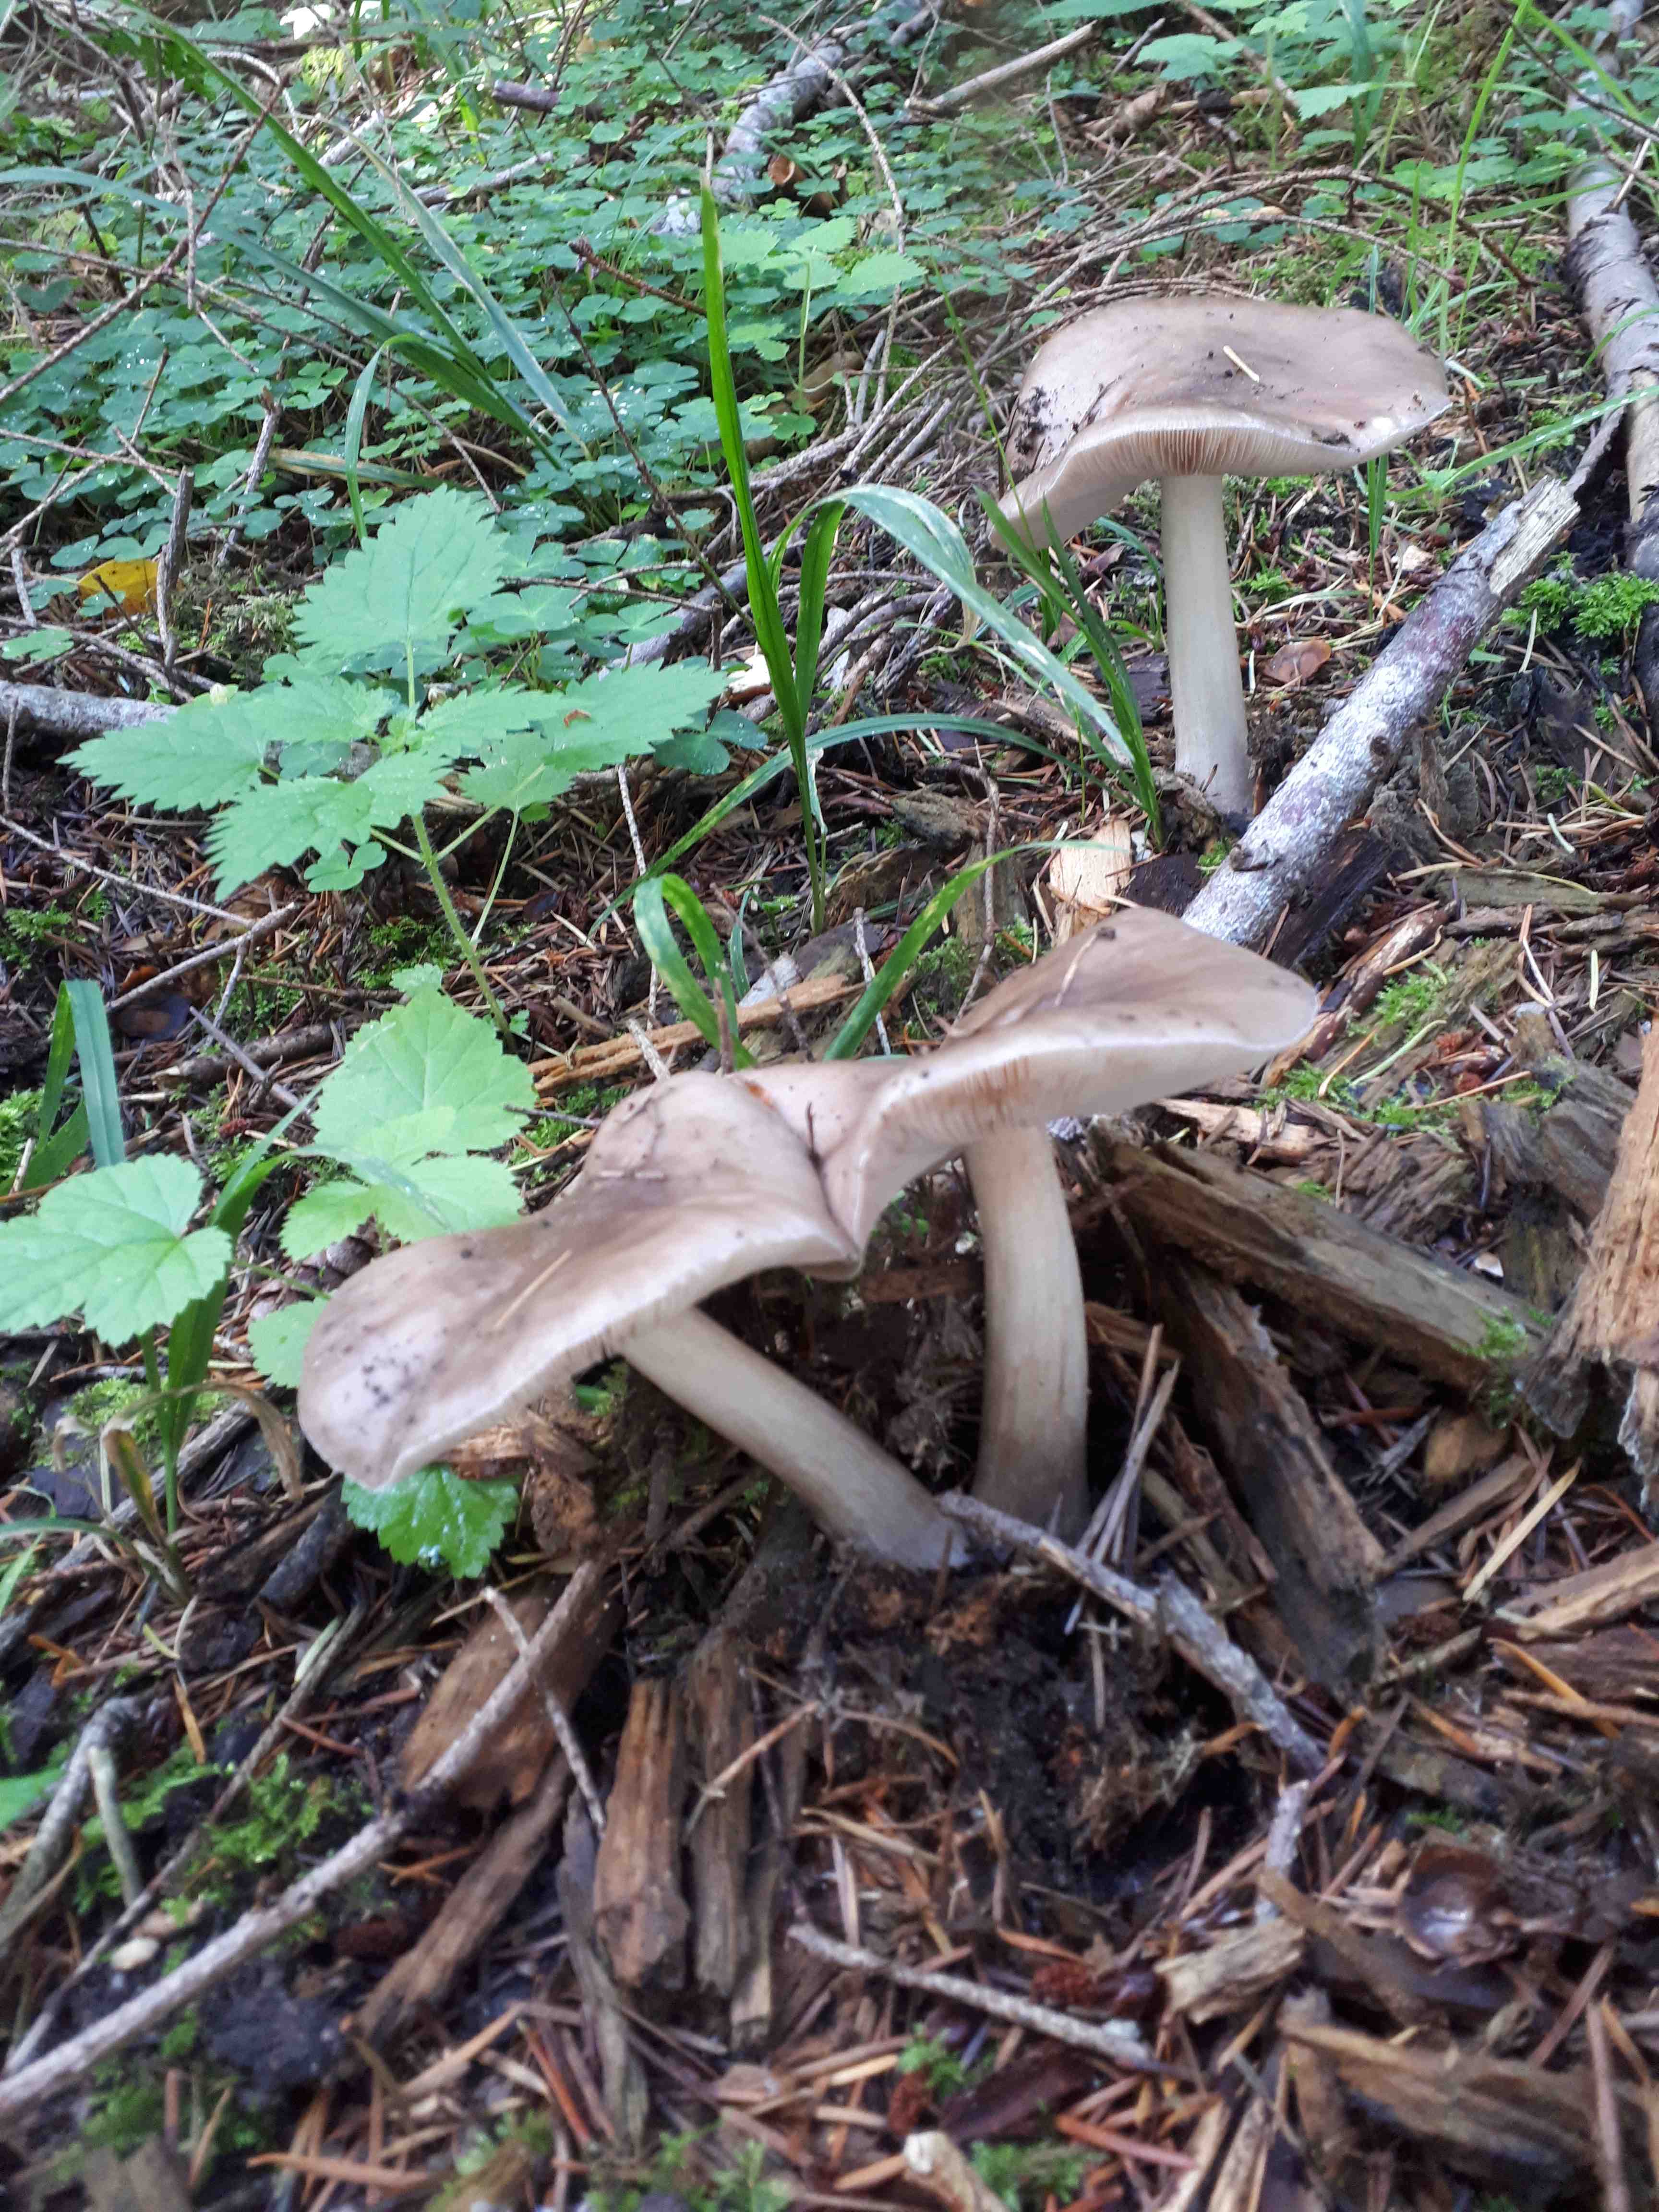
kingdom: Fungi
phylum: Basidiomycota
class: Agaricomycetes
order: Agaricales
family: Pluteaceae
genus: Pluteus
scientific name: Pluteus cervinus
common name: sodfarvet skærmhat
